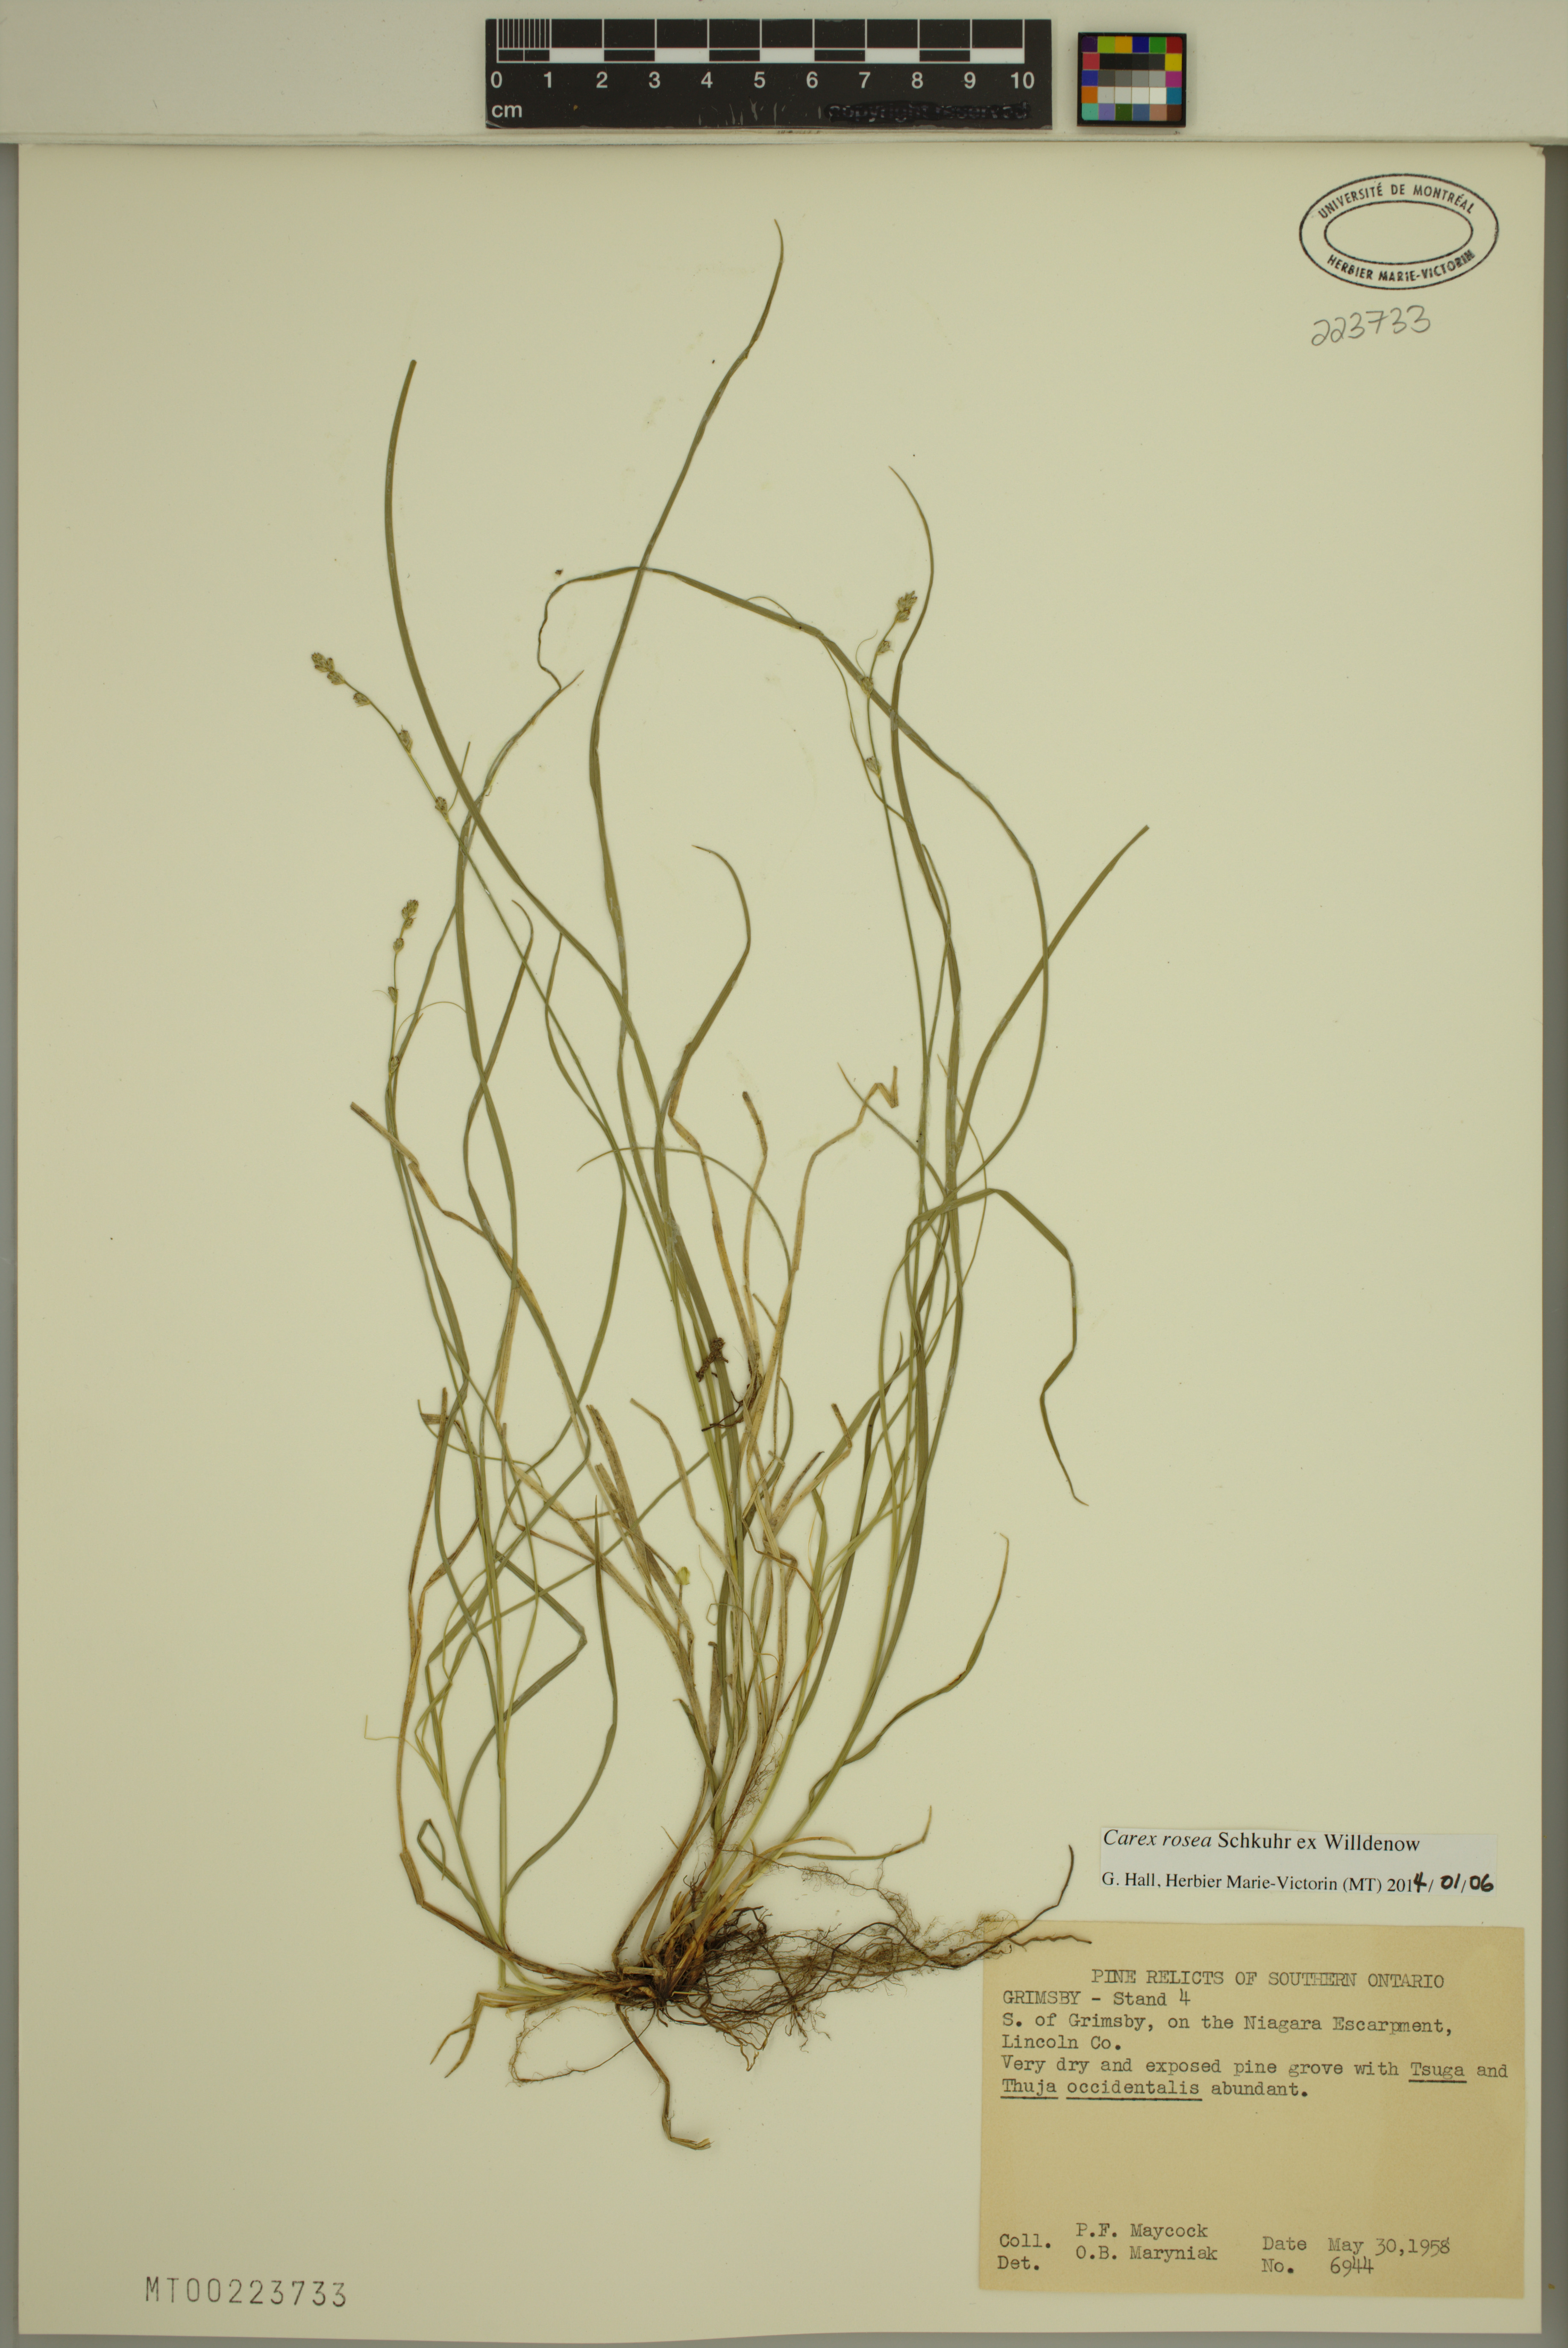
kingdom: Plantae
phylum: Tracheophyta
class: Liliopsida
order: Poales
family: Cyperaceae
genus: Carex
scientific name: Carex rosea
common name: Curly-styled wood sedge
